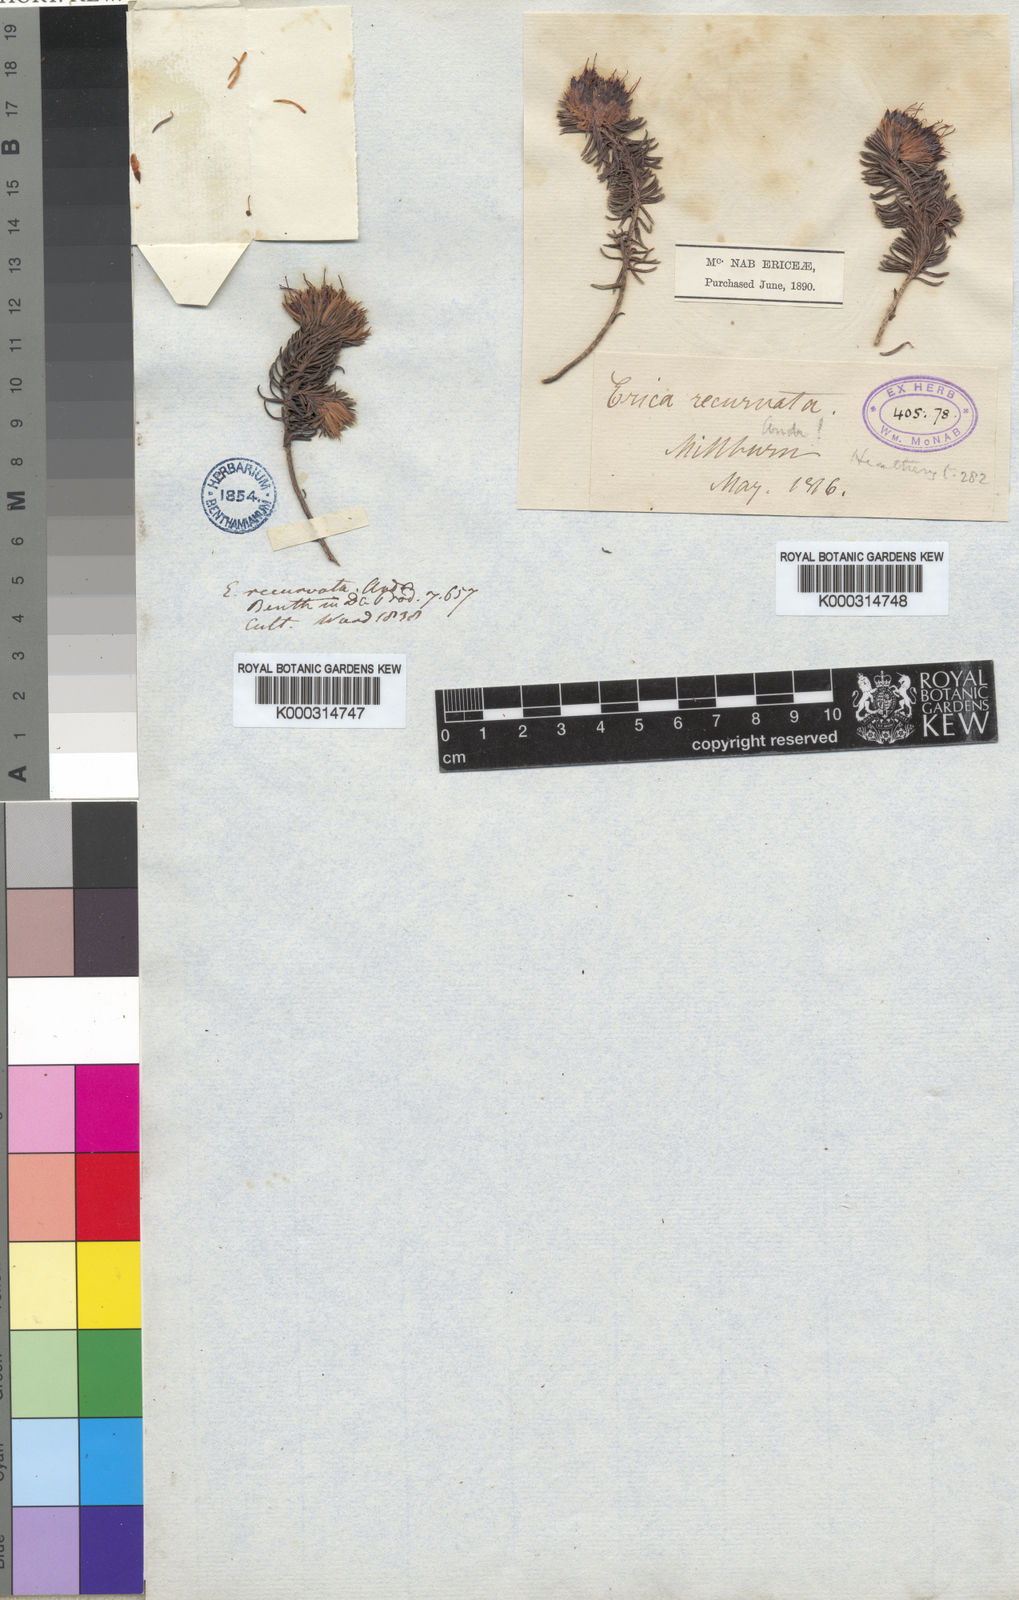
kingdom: Plantae
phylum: Tracheophyta
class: Magnoliopsida
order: Ericales
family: Ericaceae
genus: Erica
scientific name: Erica cumuliflora
